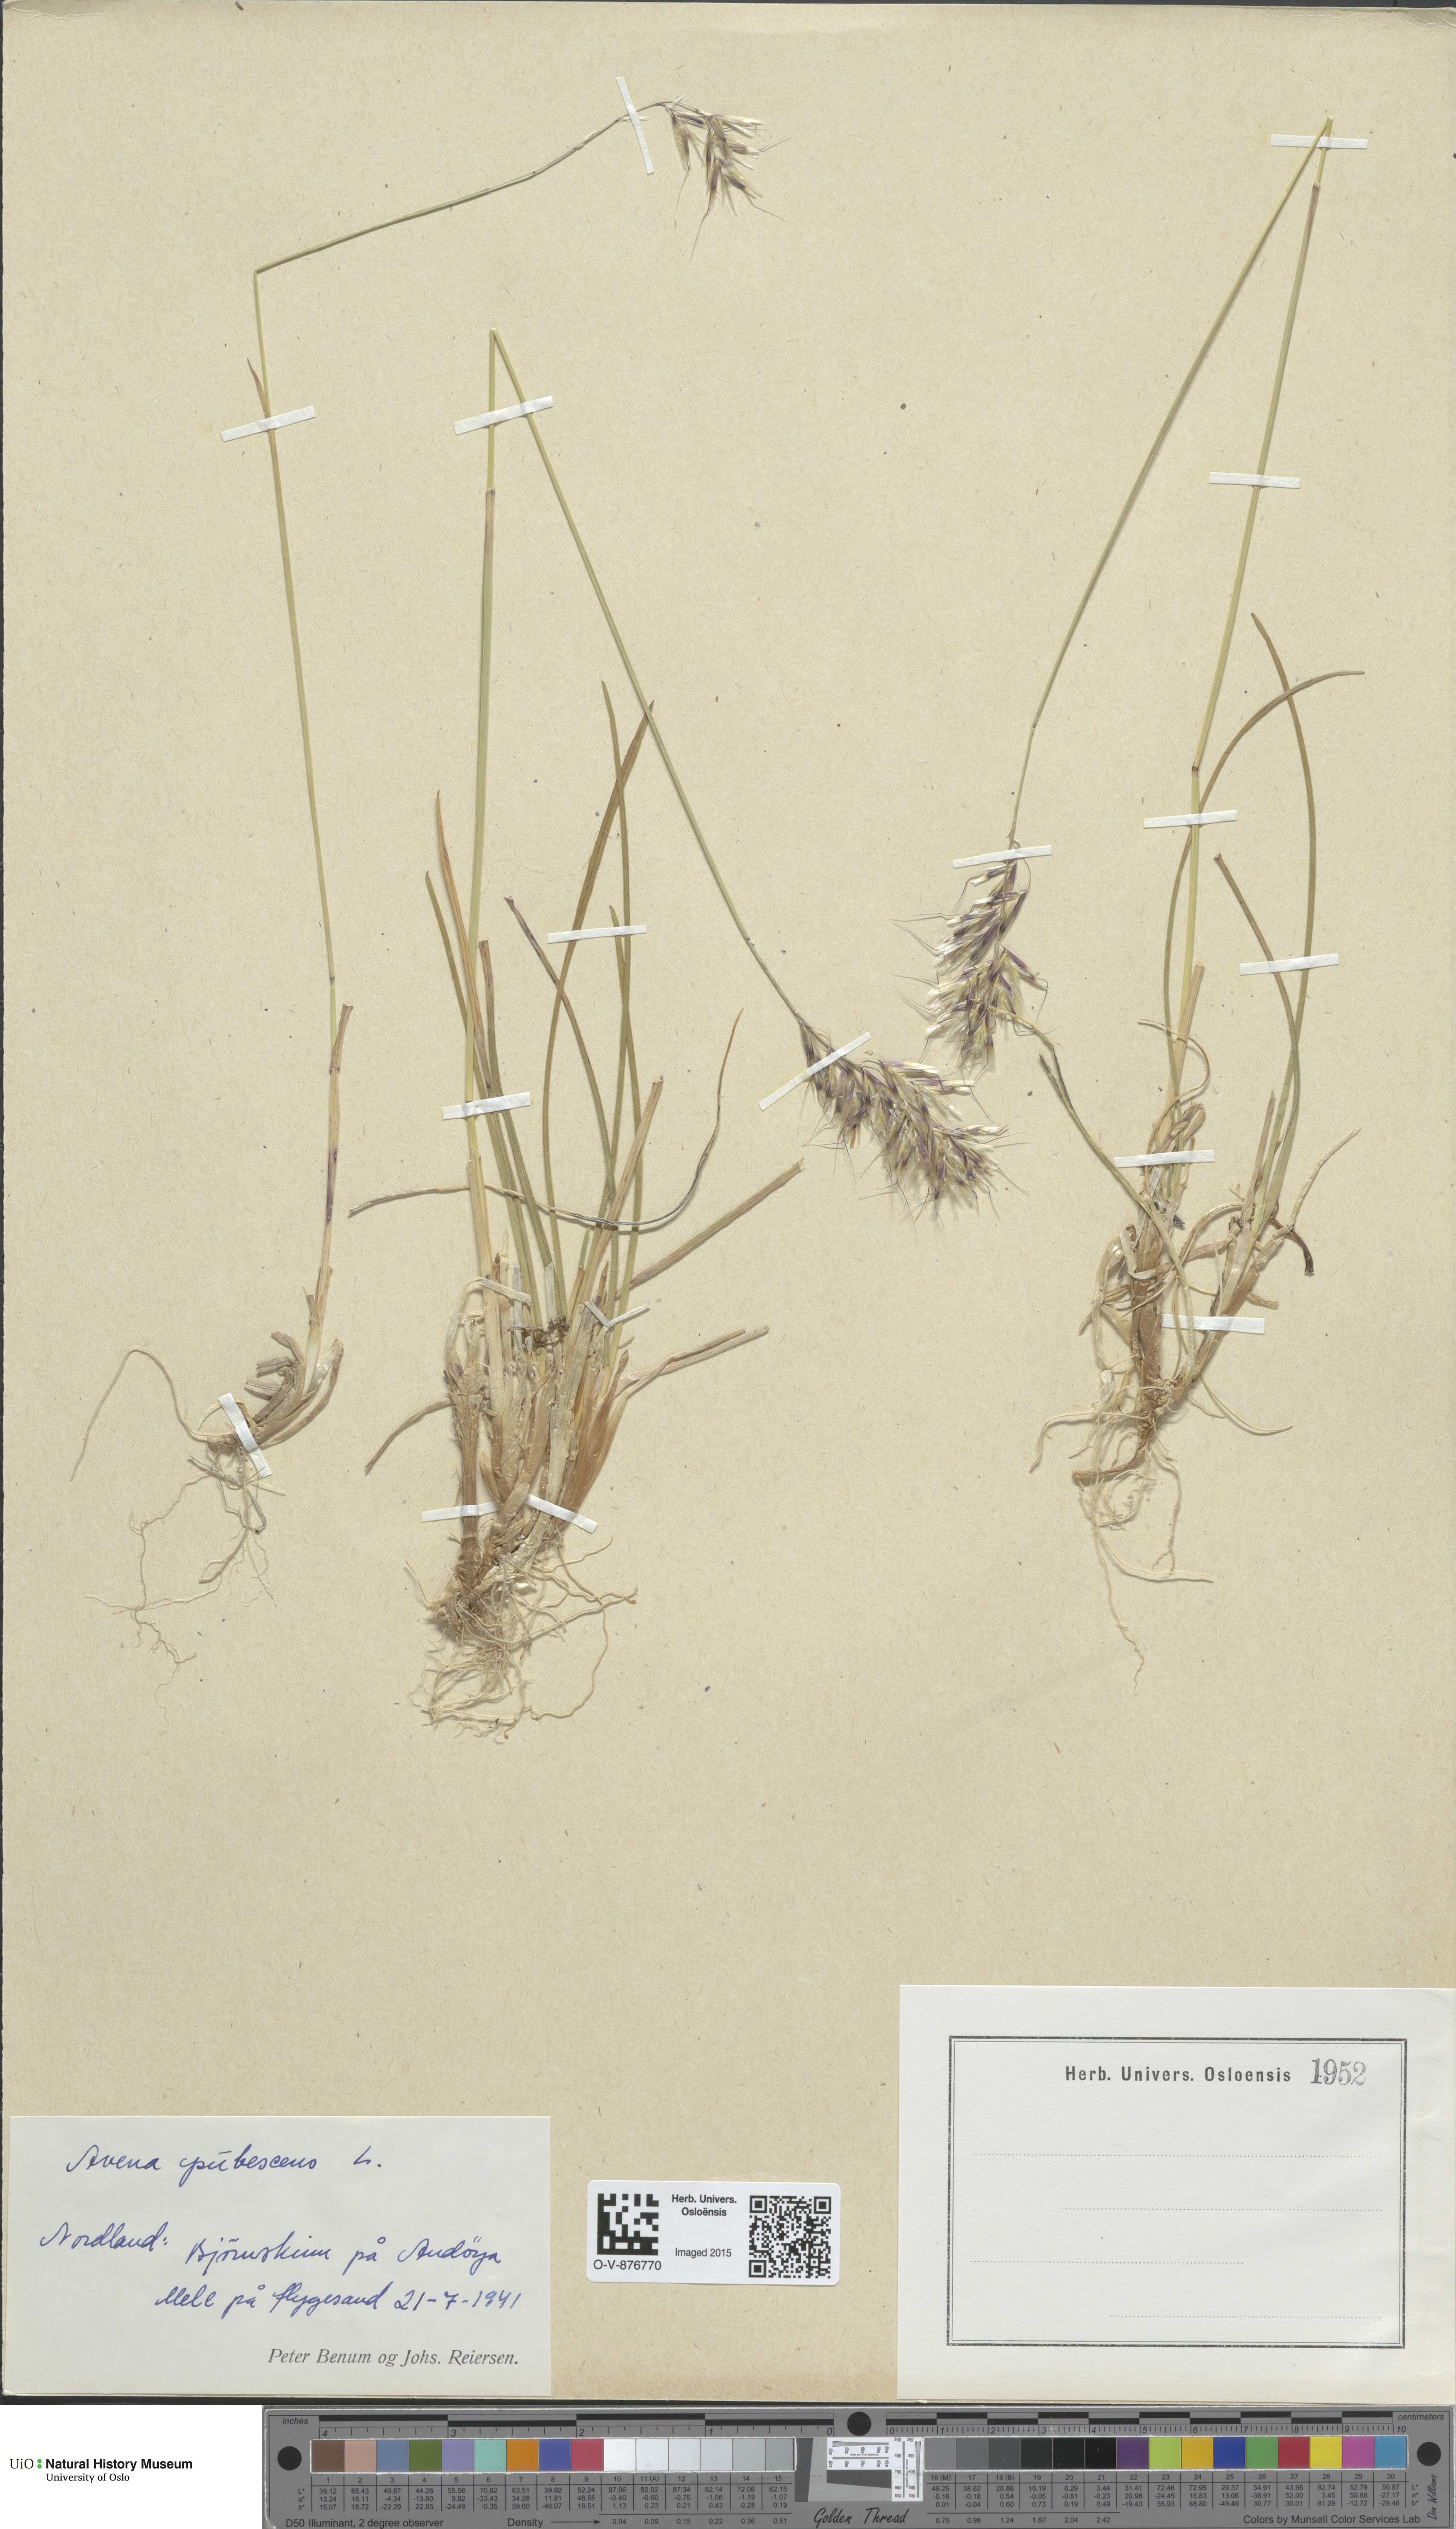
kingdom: Plantae
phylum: Tracheophyta
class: Liliopsida
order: Poales
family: Poaceae
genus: Avenula
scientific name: Avenula pubescens
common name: Downy alpine oatgrass
